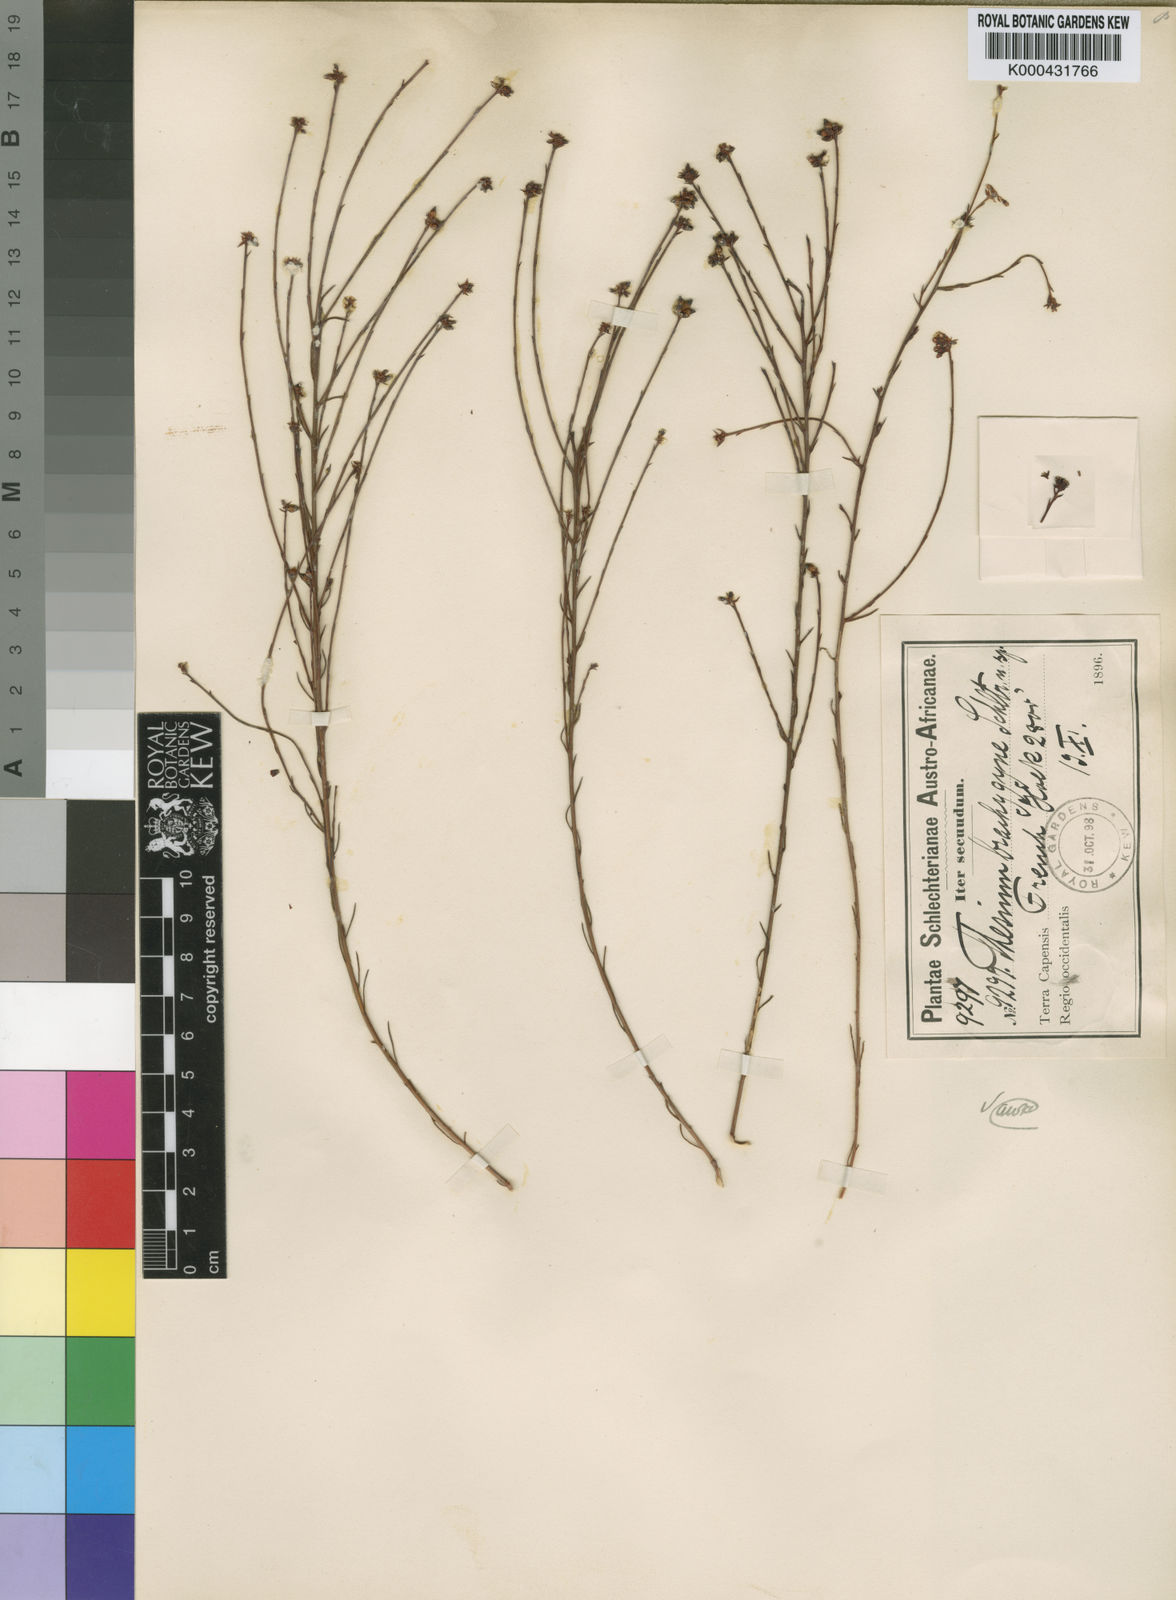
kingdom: Plantae
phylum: Tracheophyta
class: Magnoliopsida
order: Santalales
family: Thesiaceae
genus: Thesium
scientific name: Thesium brachygyne
